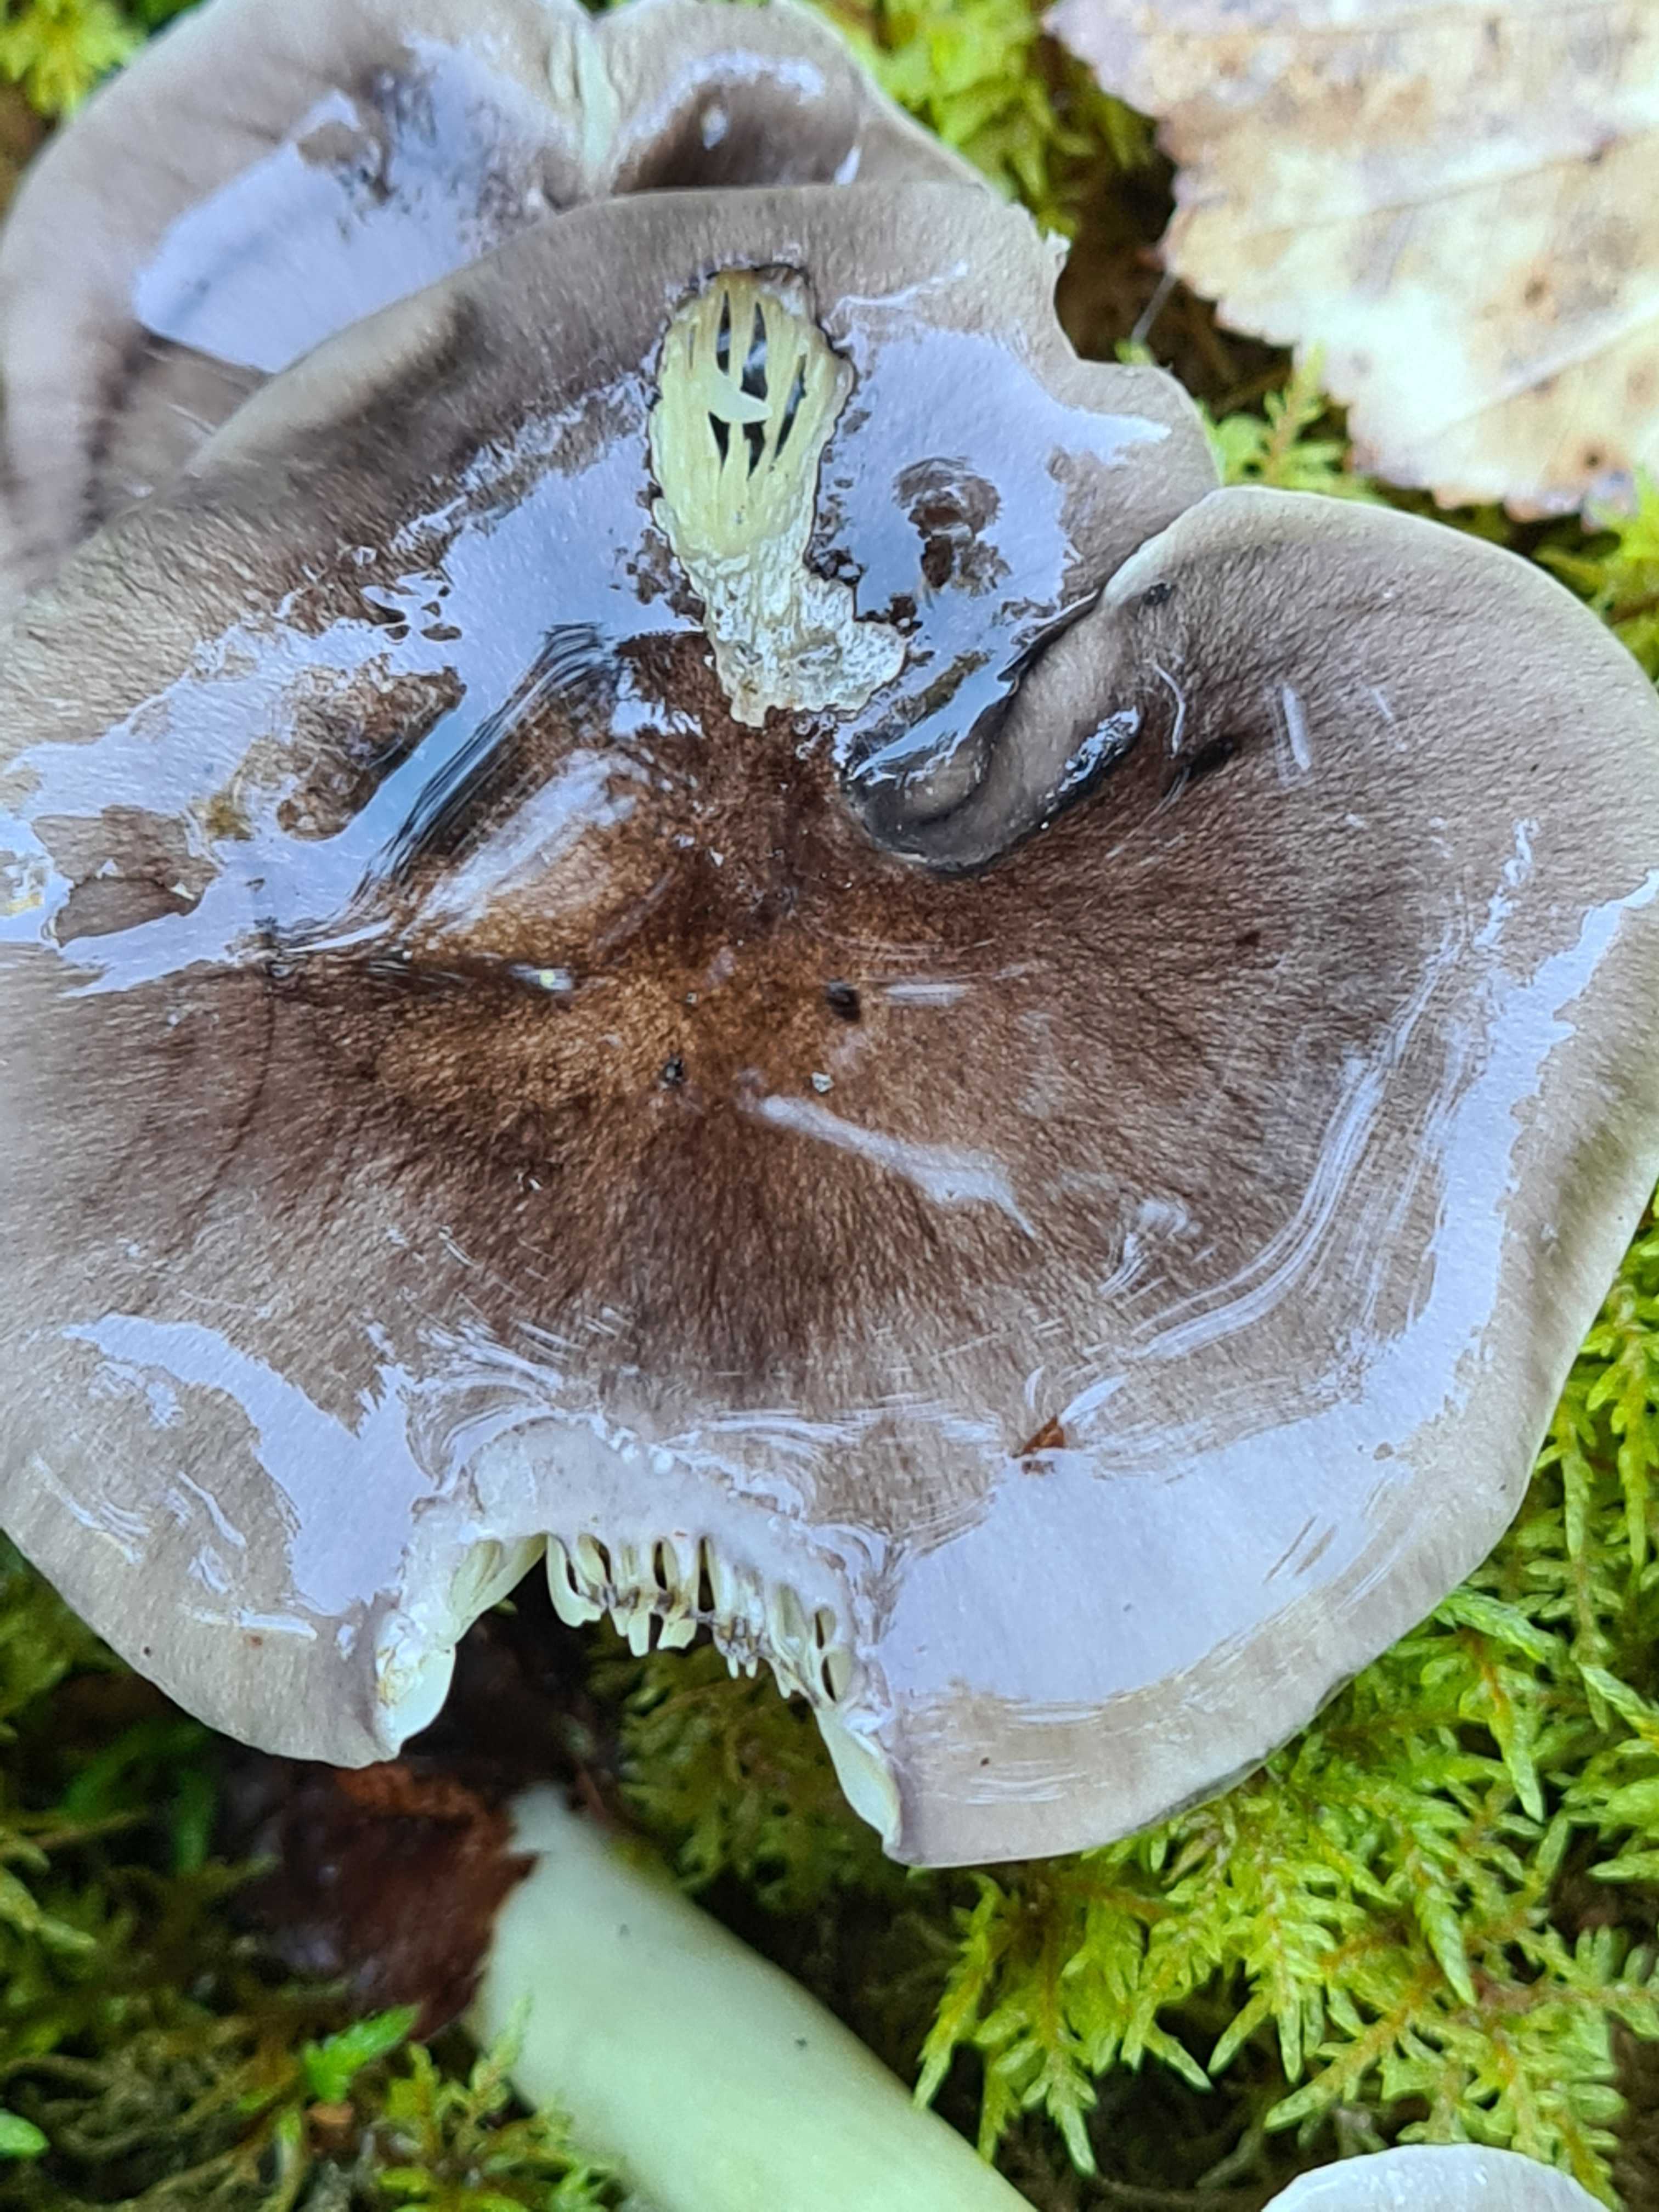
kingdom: Fungi
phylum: Basidiomycota
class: Agaricomycetes
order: Agaricales
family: Tricholomataceae
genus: Tricholoma
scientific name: Tricholoma portentosum
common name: grå ridderhat
